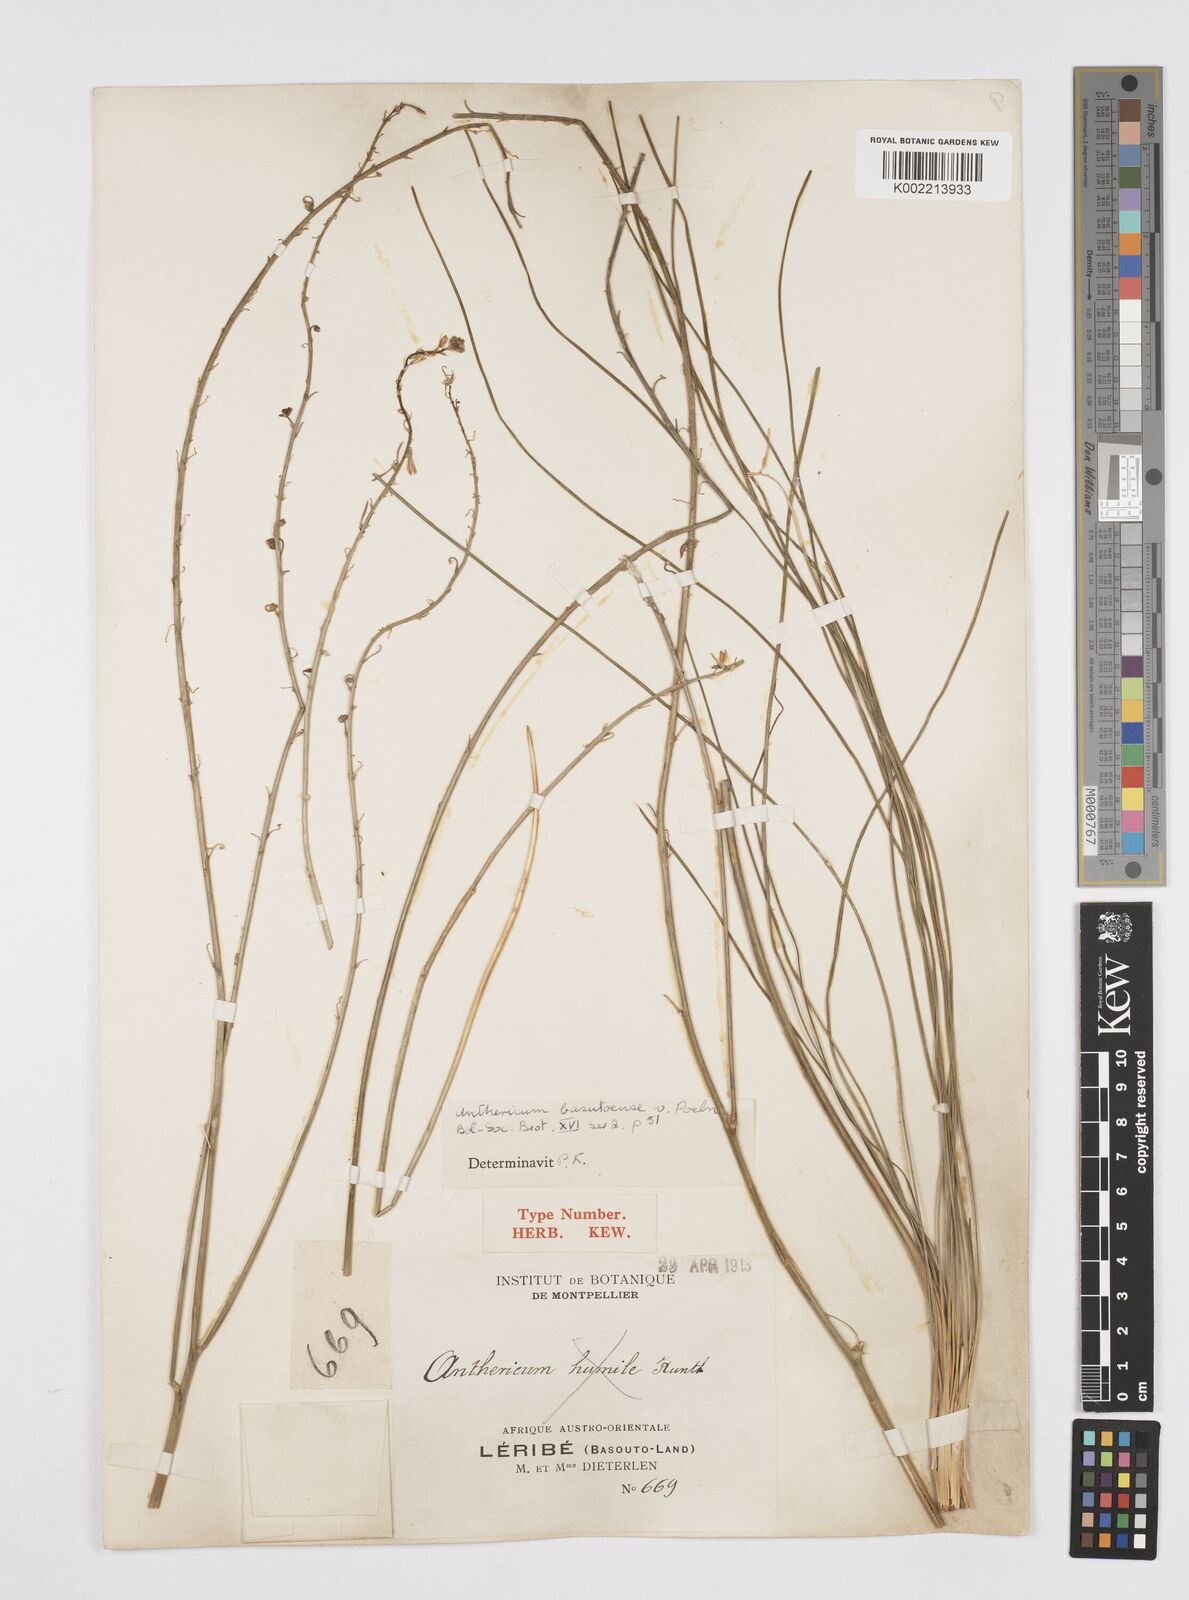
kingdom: Plantae
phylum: Tracheophyta
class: Liliopsida
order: Asparagales
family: Asphodelaceae
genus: Trachyandra
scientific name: Trachyandra asperata
